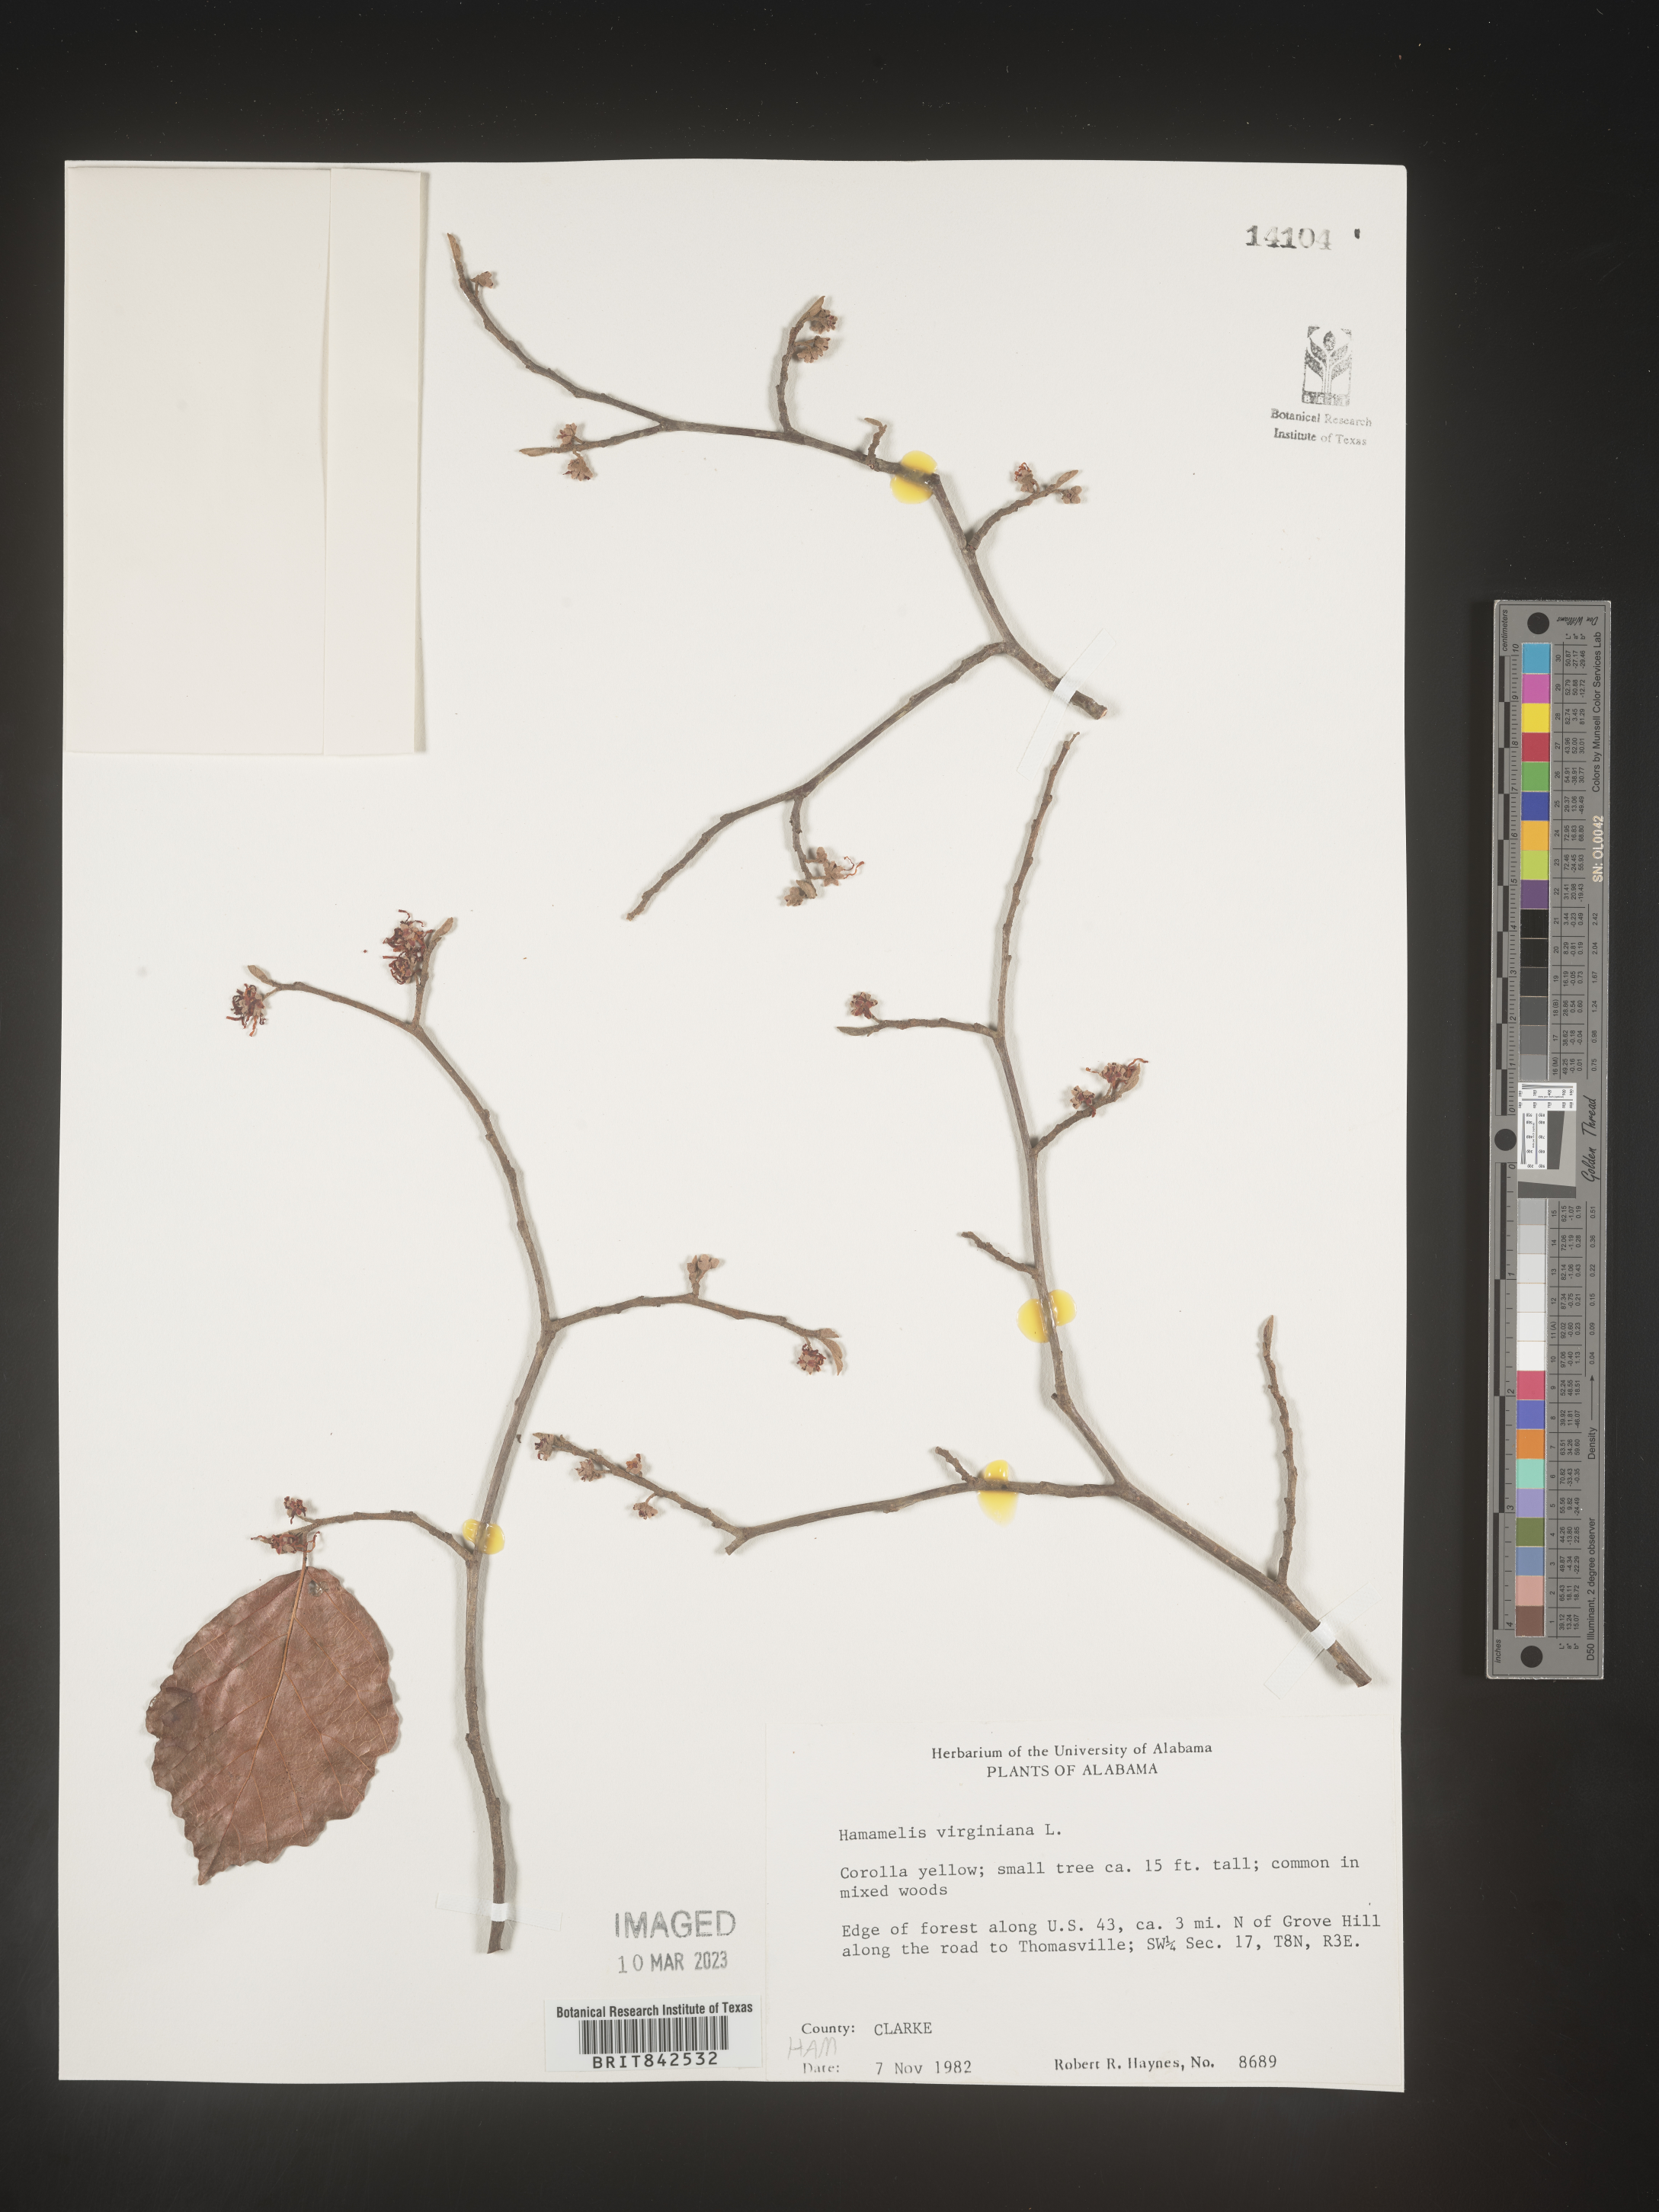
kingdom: Plantae
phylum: Tracheophyta
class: Magnoliopsida
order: Saxifragales
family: Hamamelidaceae
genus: Hamamelis
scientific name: Hamamelis virginiana
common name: Witch-hazel
